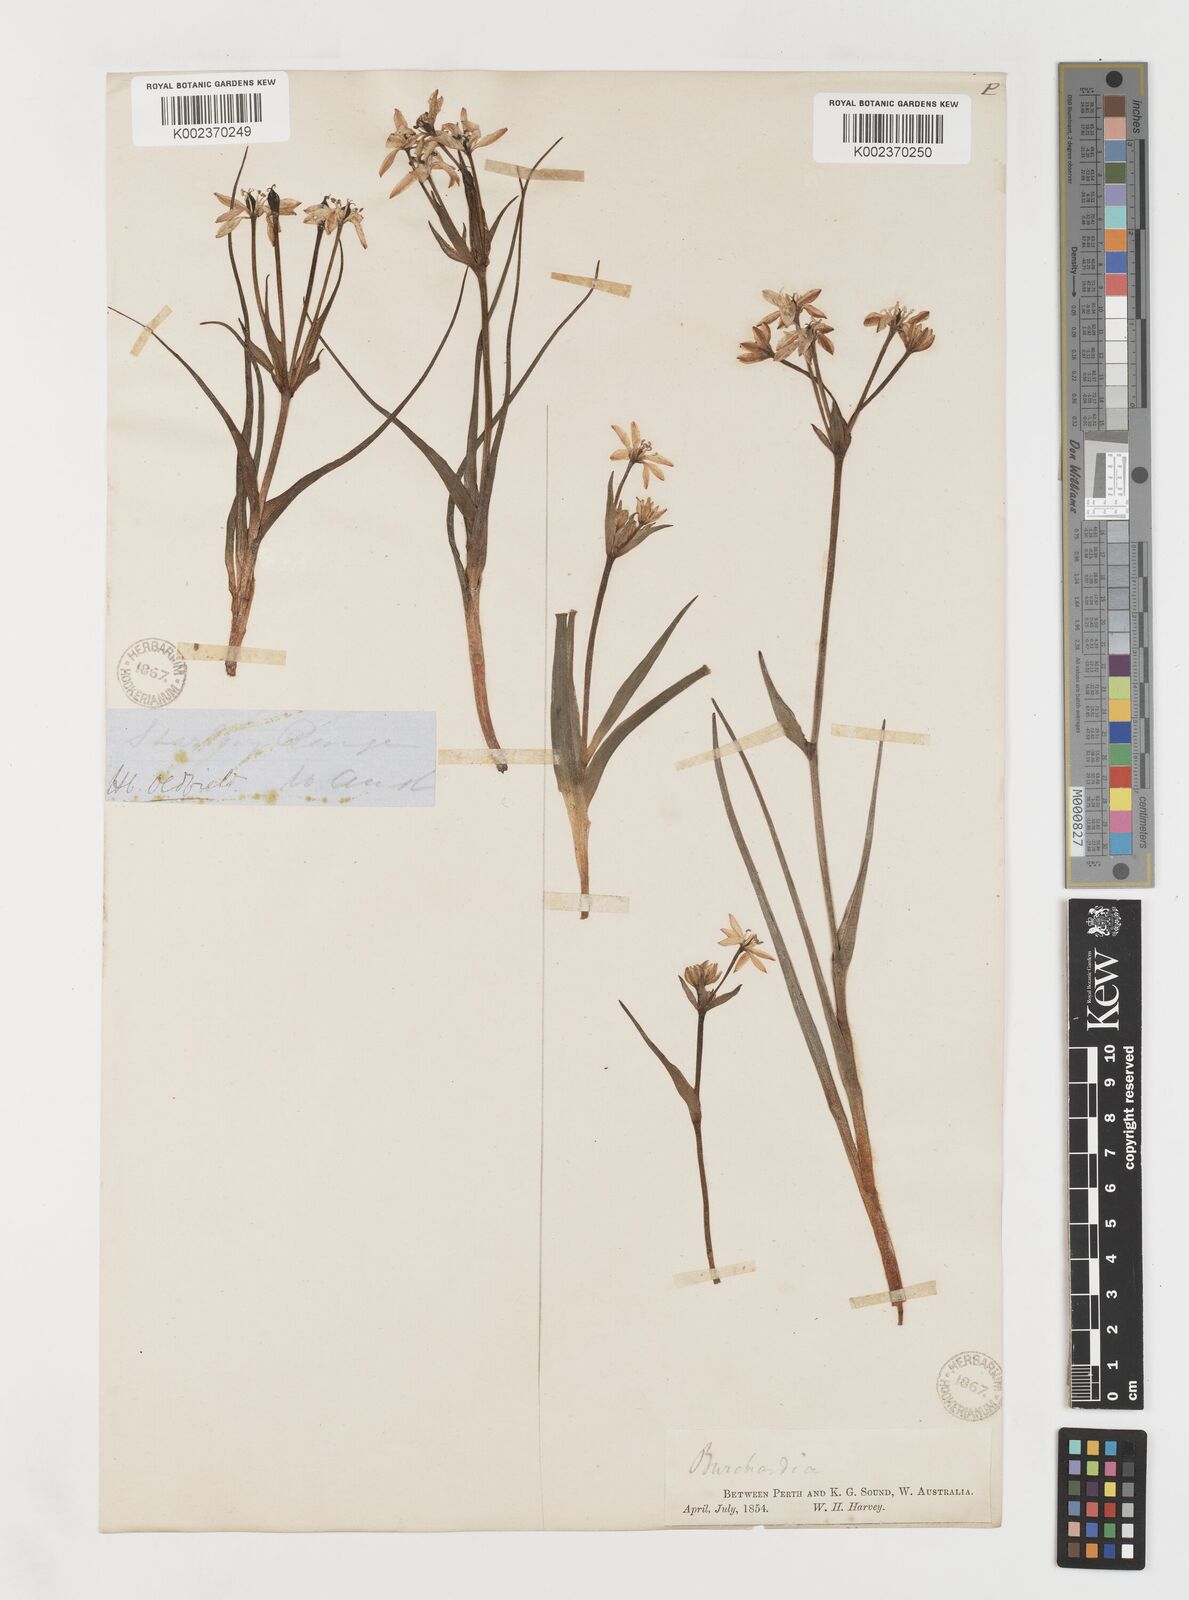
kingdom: Plantae
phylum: Tracheophyta
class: Liliopsida
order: Liliales
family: Colchicaceae
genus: Burchardia
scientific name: Burchardia
